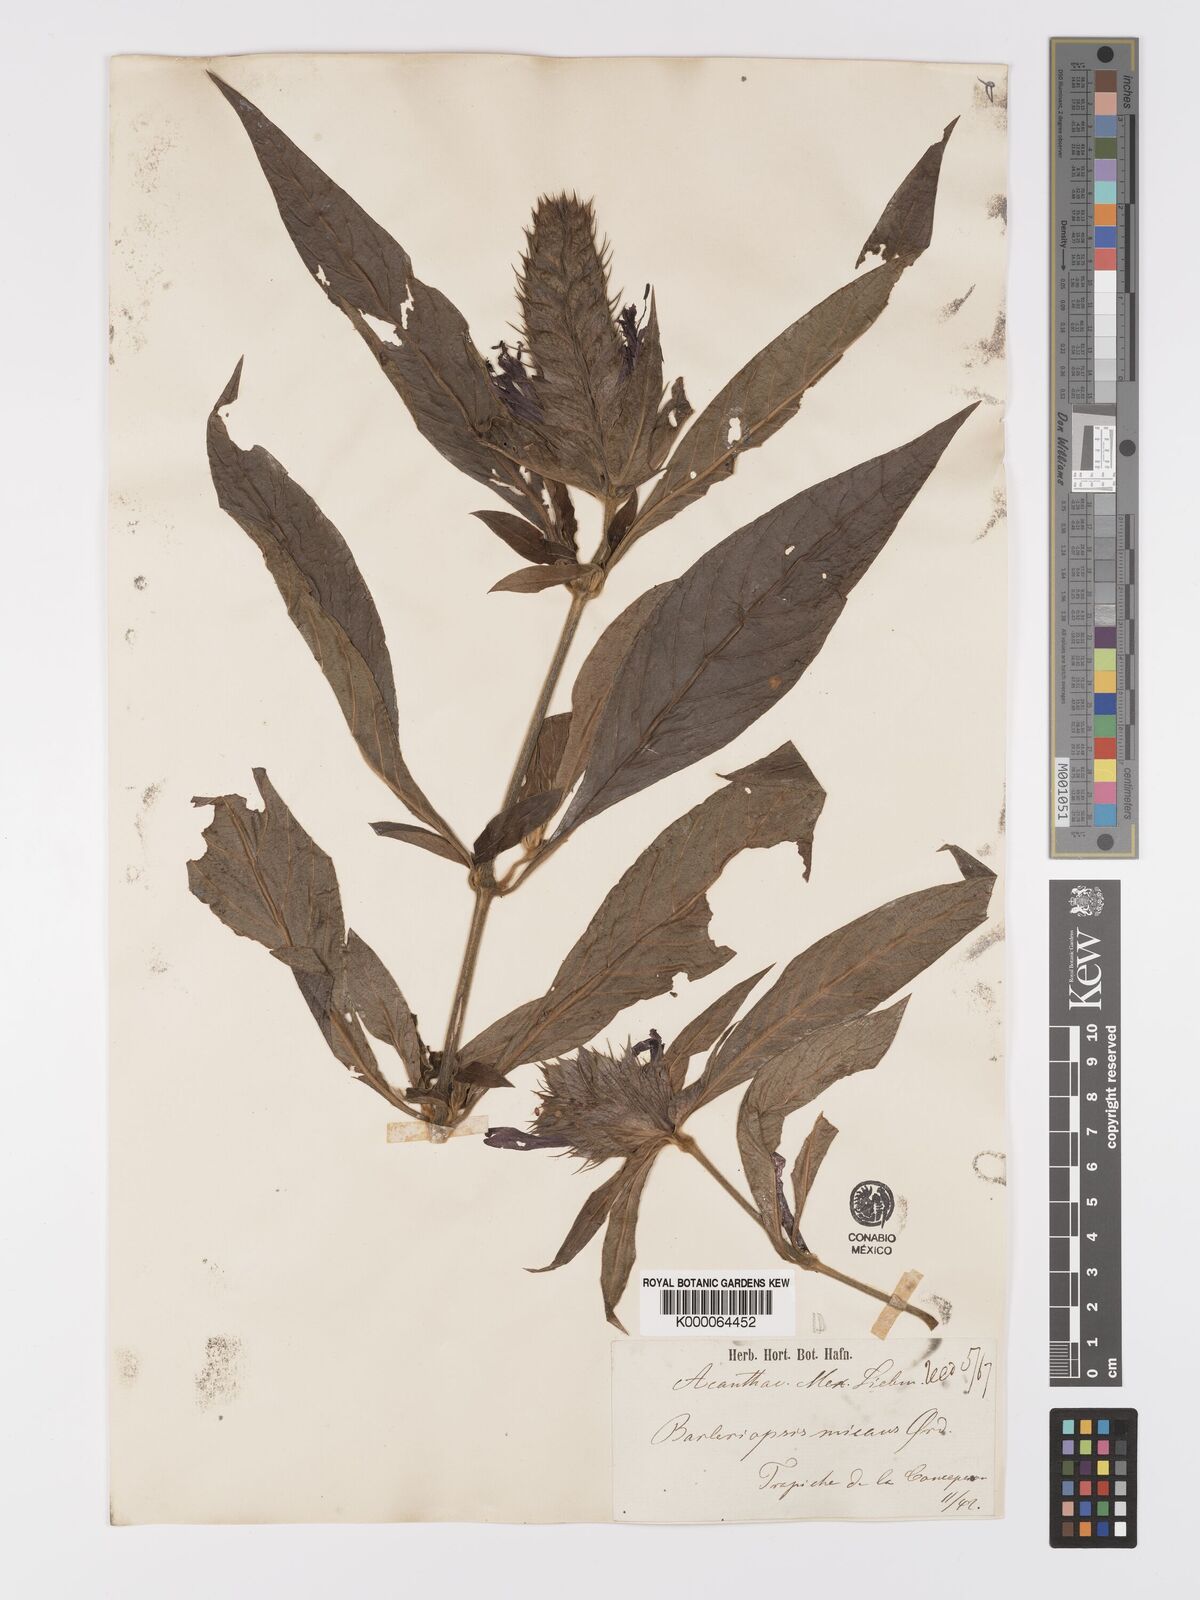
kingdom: Plantae
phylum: Tracheophyta
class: Magnoliopsida
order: Lamiales
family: Acanthaceae
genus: Barleria
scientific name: Barleria oenotheroides
